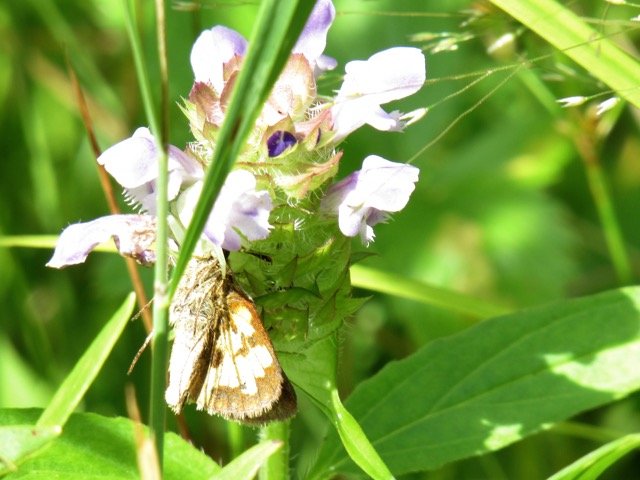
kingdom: Animalia
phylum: Arthropoda
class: Insecta
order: Lepidoptera
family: Hesperiidae
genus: Polites
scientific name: Polites coras
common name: Peck's Skipper
